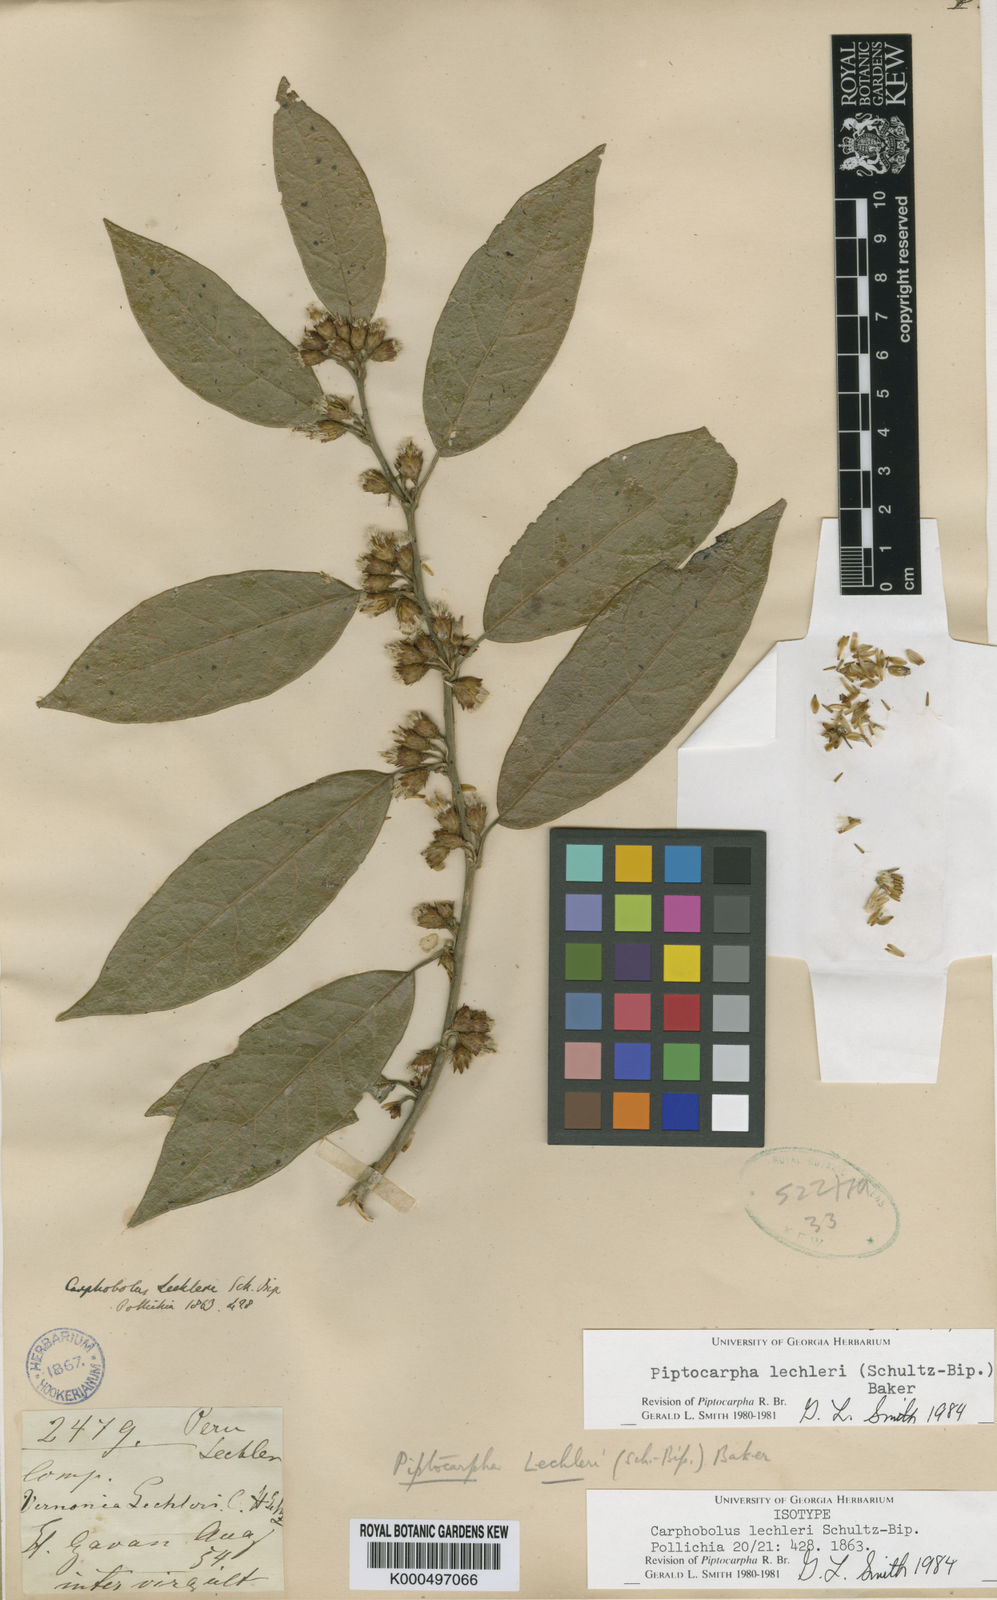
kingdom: Plantae
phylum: Tracheophyta
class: Magnoliopsida
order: Asterales
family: Asteraceae
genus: Piptocarpha
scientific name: Piptocarpha lechleri
